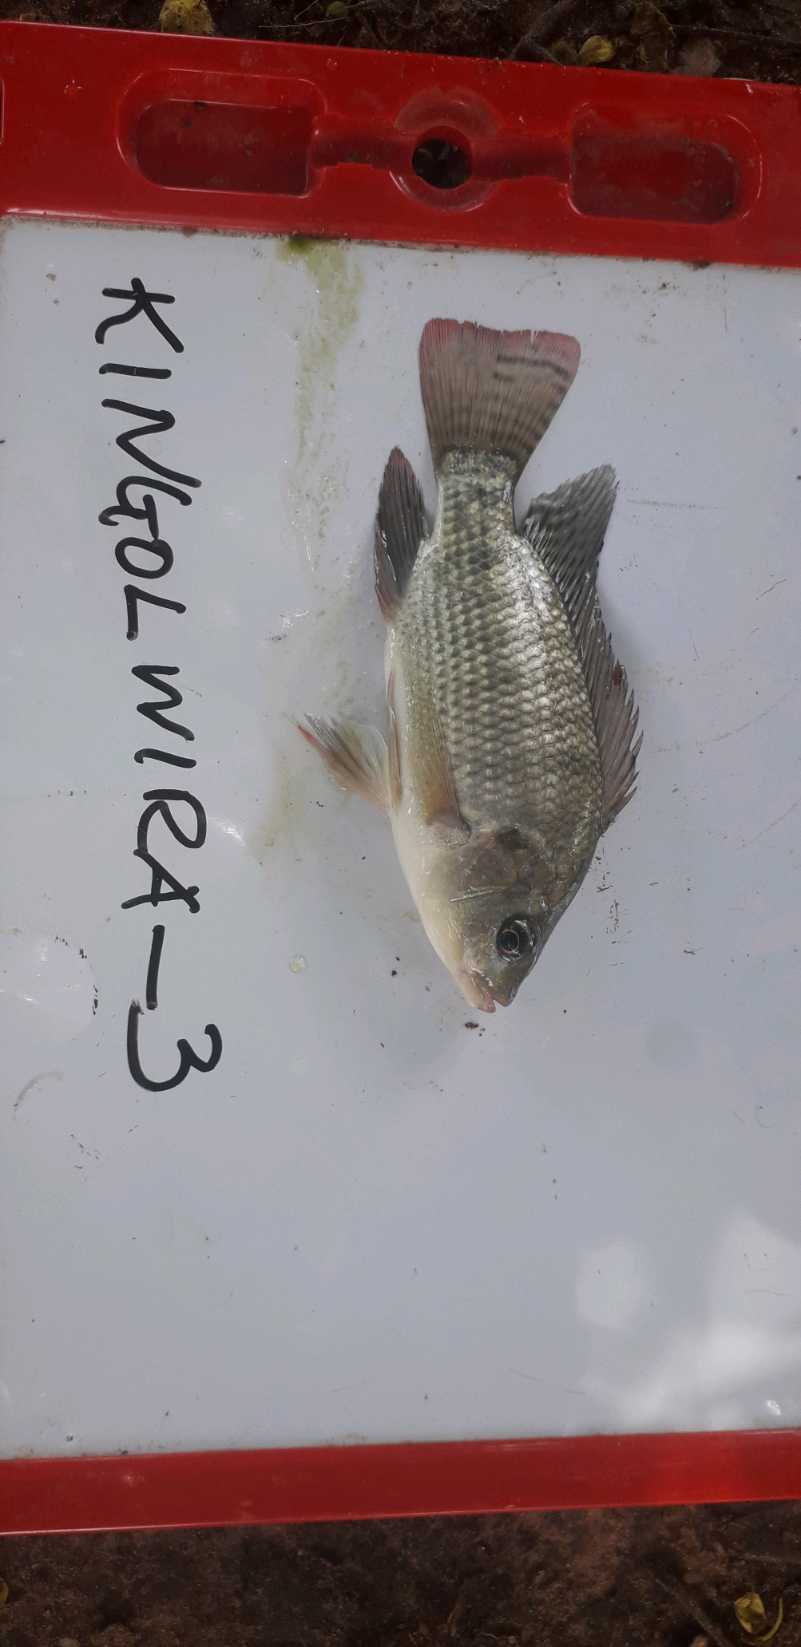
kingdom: Animalia
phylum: Chordata
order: Perciformes
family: Cichlidae
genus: Oreochromis
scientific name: Oreochromis niloticus
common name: Nile tilapia
